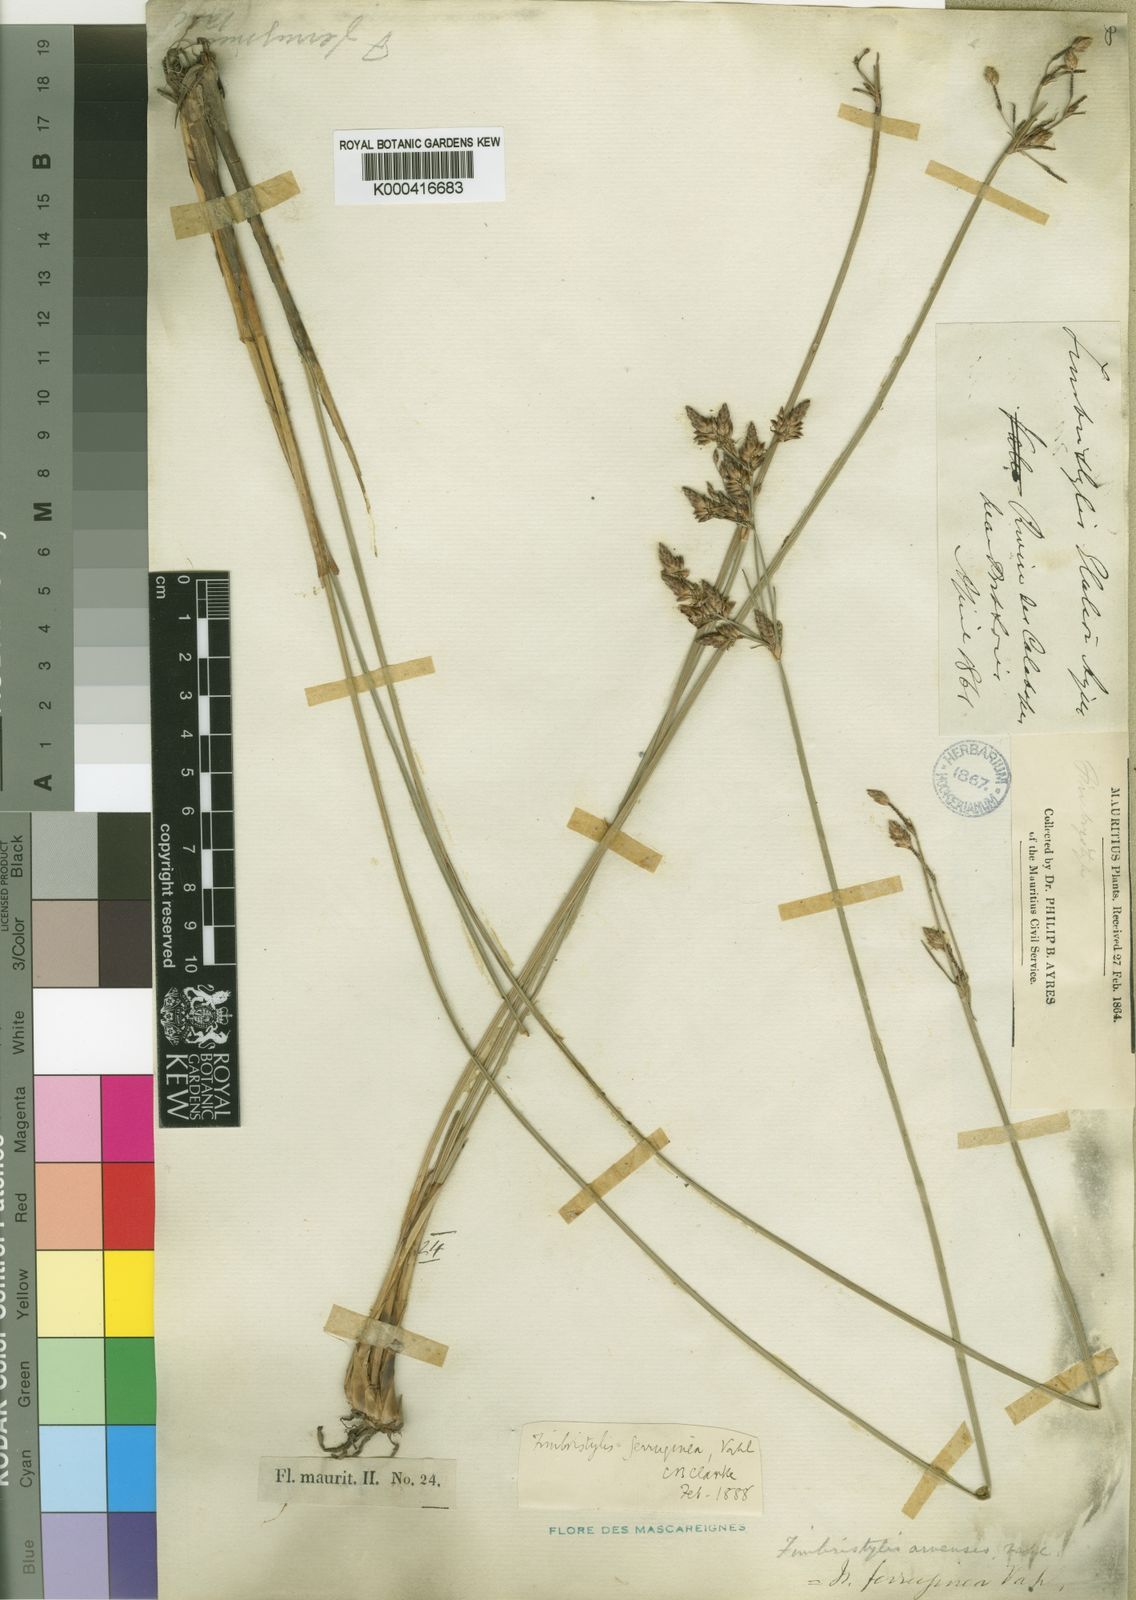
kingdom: Plantae
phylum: Tracheophyta
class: Liliopsida
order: Poales
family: Cyperaceae
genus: Fimbristylis
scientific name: Fimbristylis ferruginea
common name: West indian fimbry
